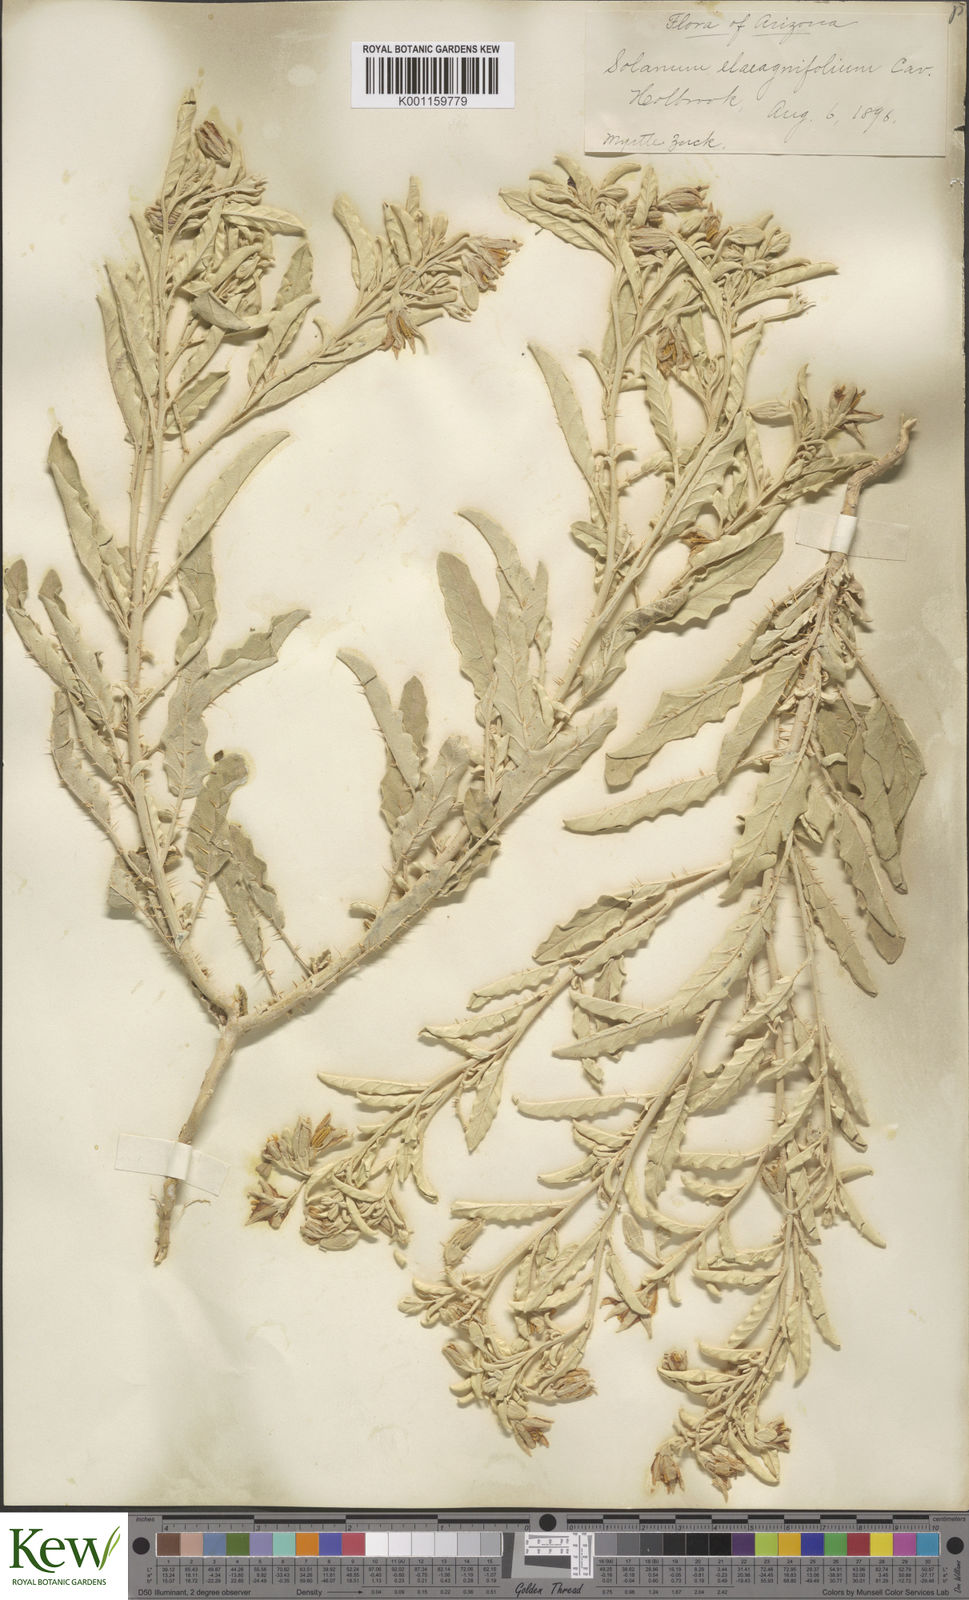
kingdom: Plantae
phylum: Tracheophyta
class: Magnoliopsida
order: Solanales
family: Solanaceae
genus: Solanum
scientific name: Solanum
